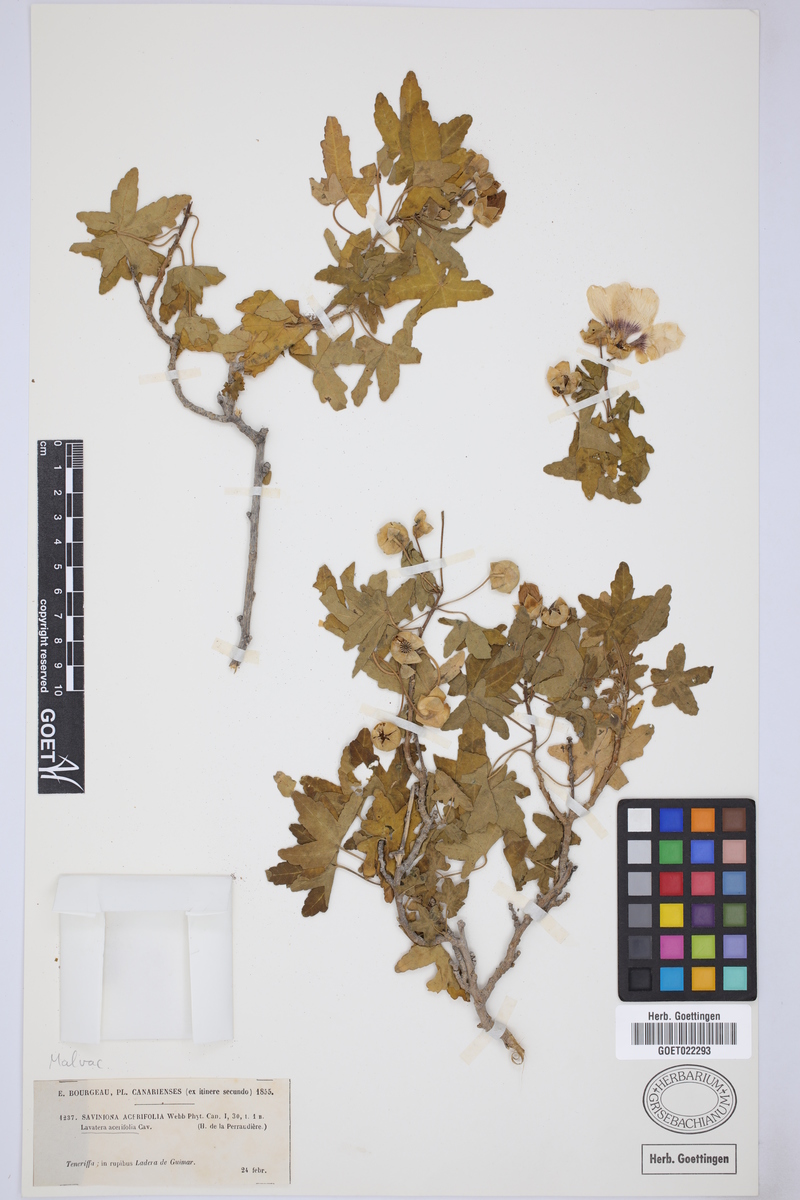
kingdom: Plantae
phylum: Tracheophyta
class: Magnoliopsida
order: Malvales
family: Malvaceae
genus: Malva
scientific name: Malva acerifolia
